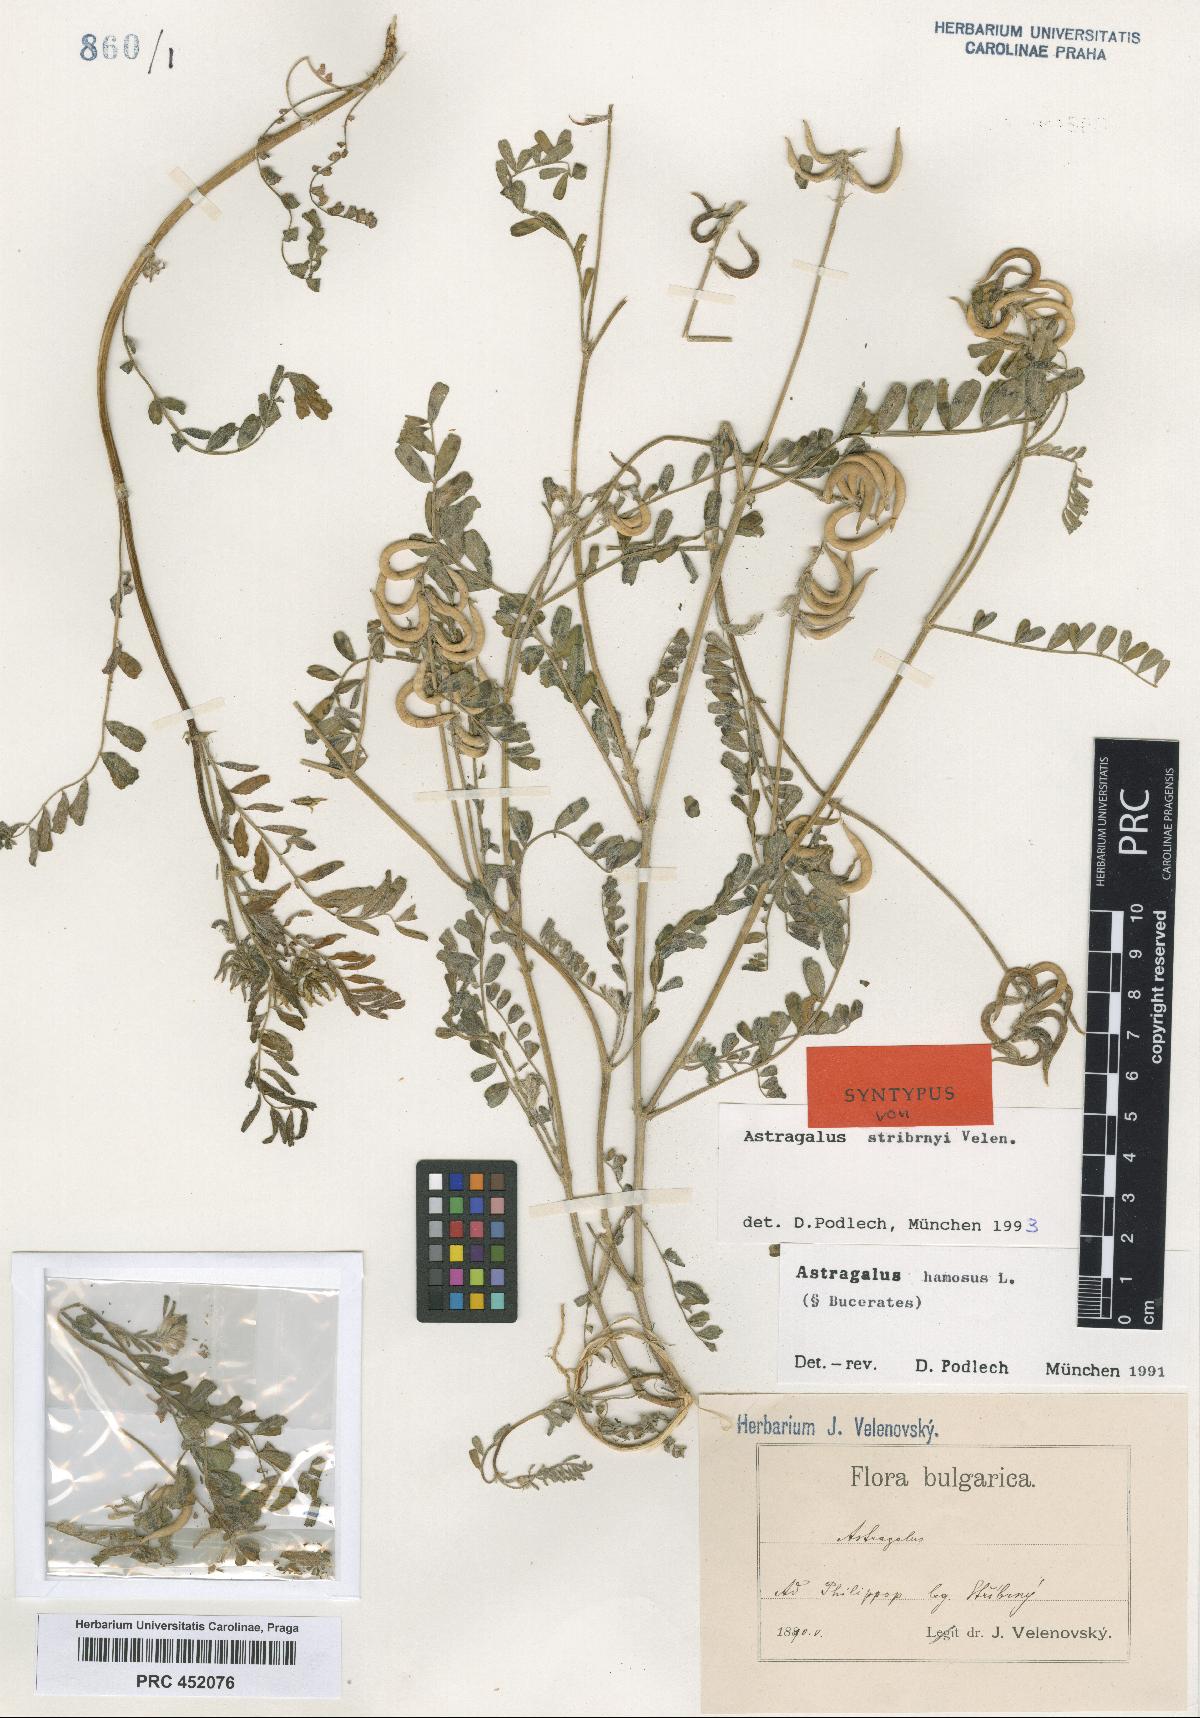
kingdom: Plantae
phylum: Tracheophyta
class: Magnoliopsida
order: Fabales
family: Fabaceae
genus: Astragalus
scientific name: Astragalus hamosus
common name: European milkvetch
